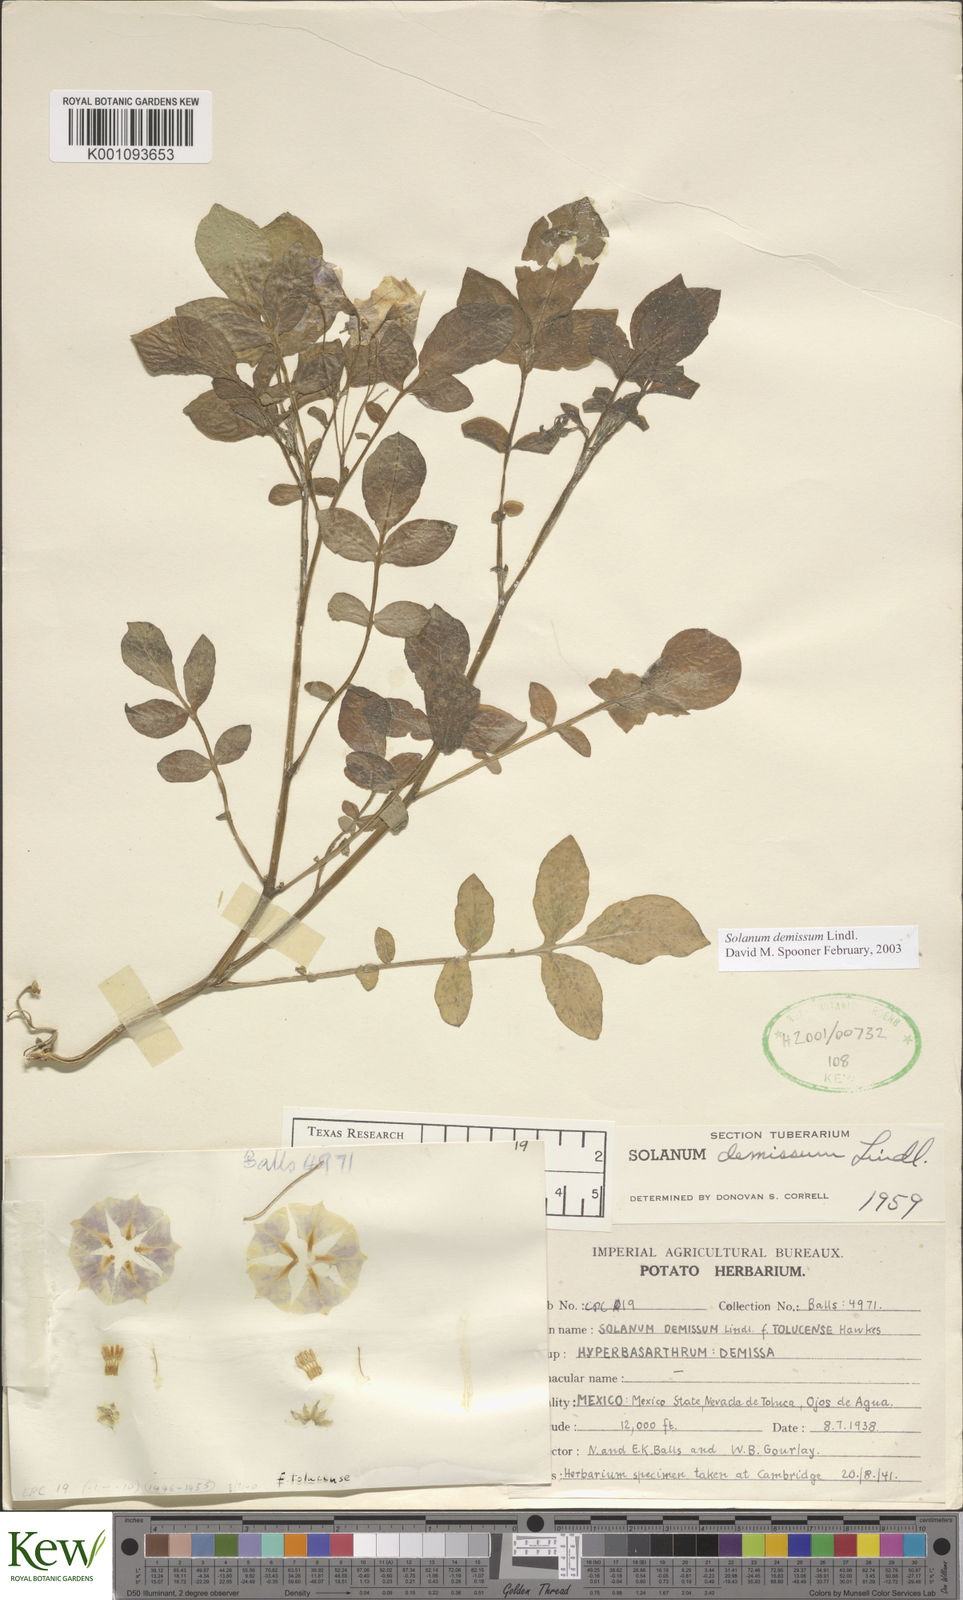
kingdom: Plantae
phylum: Tracheophyta
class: Magnoliopsida
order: Solanales
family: Solanaceae
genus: Solanum
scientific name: Solanum demissum
